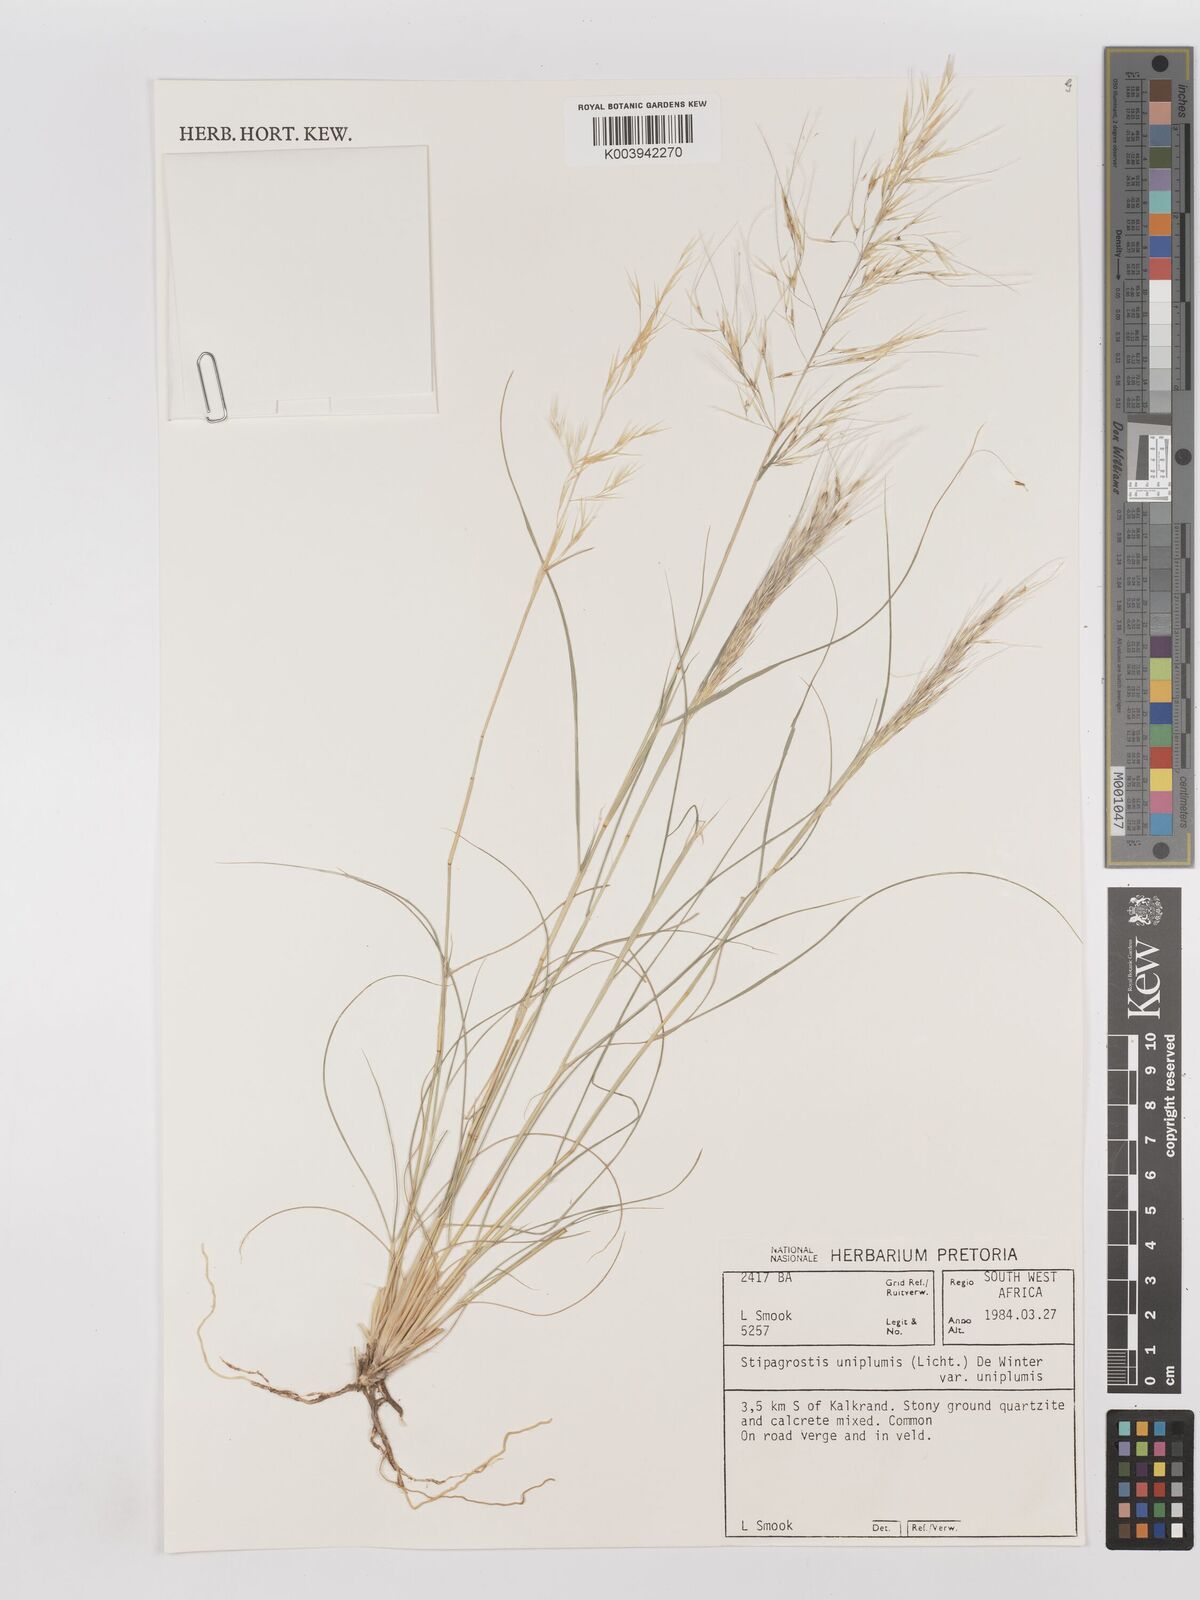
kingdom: Plantae
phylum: Tracheophyta
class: Liliopsida
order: Poales
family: Poaceae
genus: Stipagrostis
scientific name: Stipagrostis uniplumis
